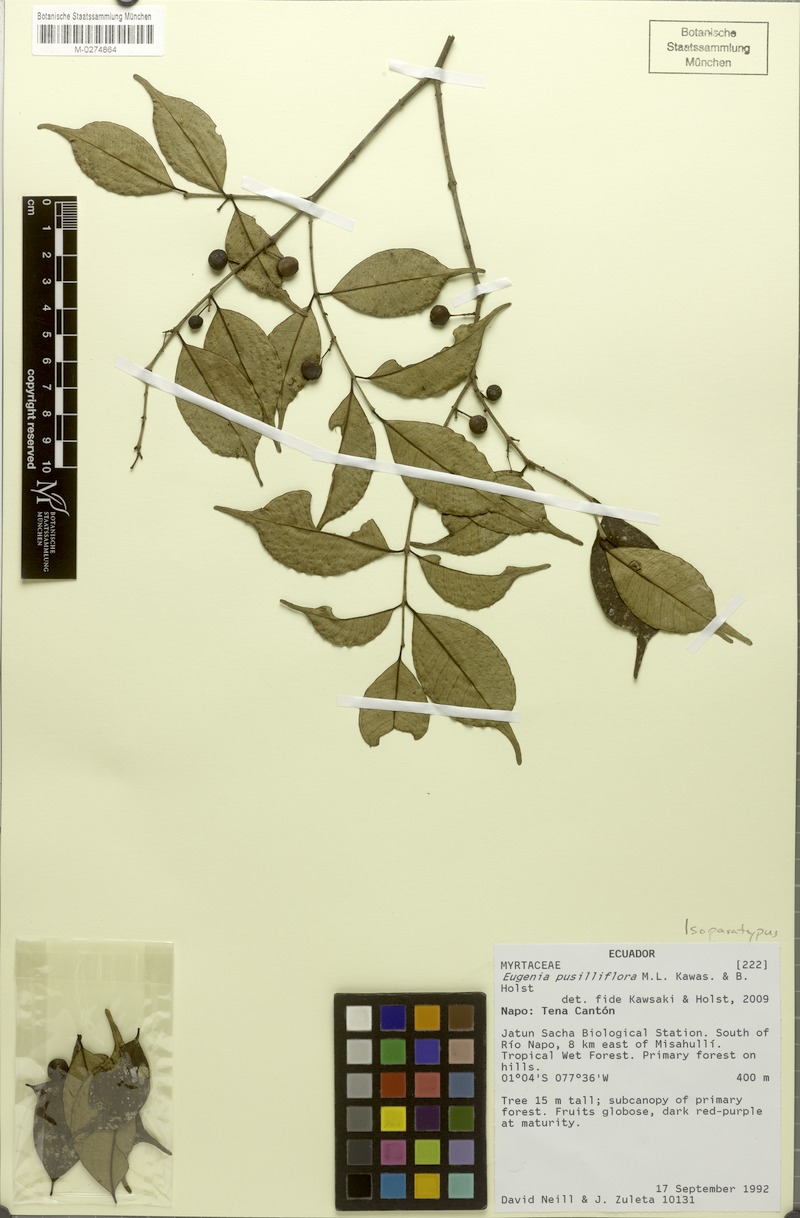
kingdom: Plantae
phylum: Tracheophyta
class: Magnoliopsida
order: Myrtales
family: Myrtaceae
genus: Eugenia
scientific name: Eugenia pusilliflora
